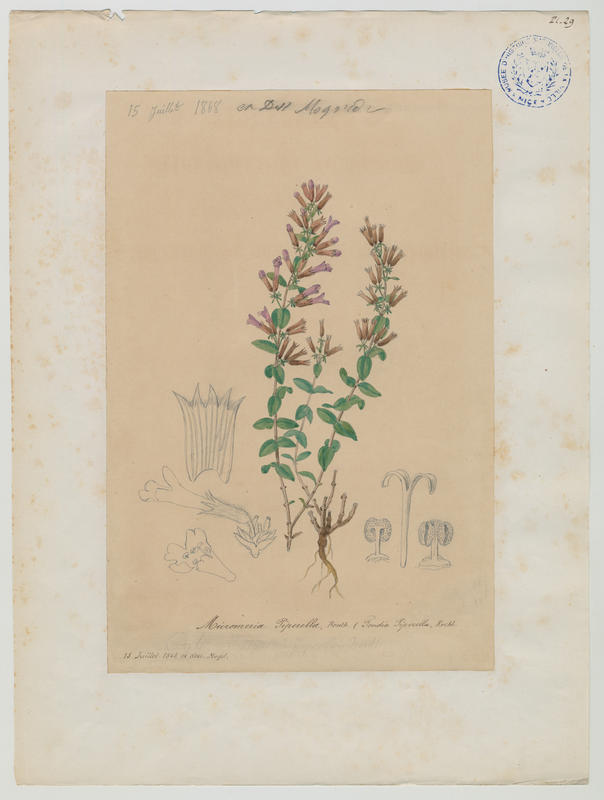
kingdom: Plantae
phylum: Tracheophyta
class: Magnoliopsida
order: Lamiales
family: Lamiaceae
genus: Micromeria
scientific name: Micromeria marginata
